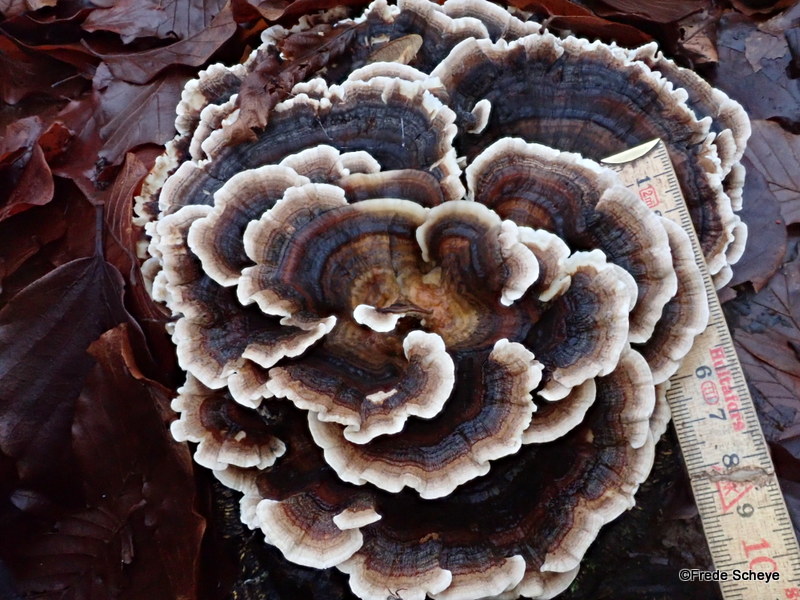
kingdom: Fungi
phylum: Basidiomycota
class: Agaricomycetes
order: Polyporales
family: Polyporaceae
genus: Trametes
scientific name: Trametes versicolor
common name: broget læderporesvamp
